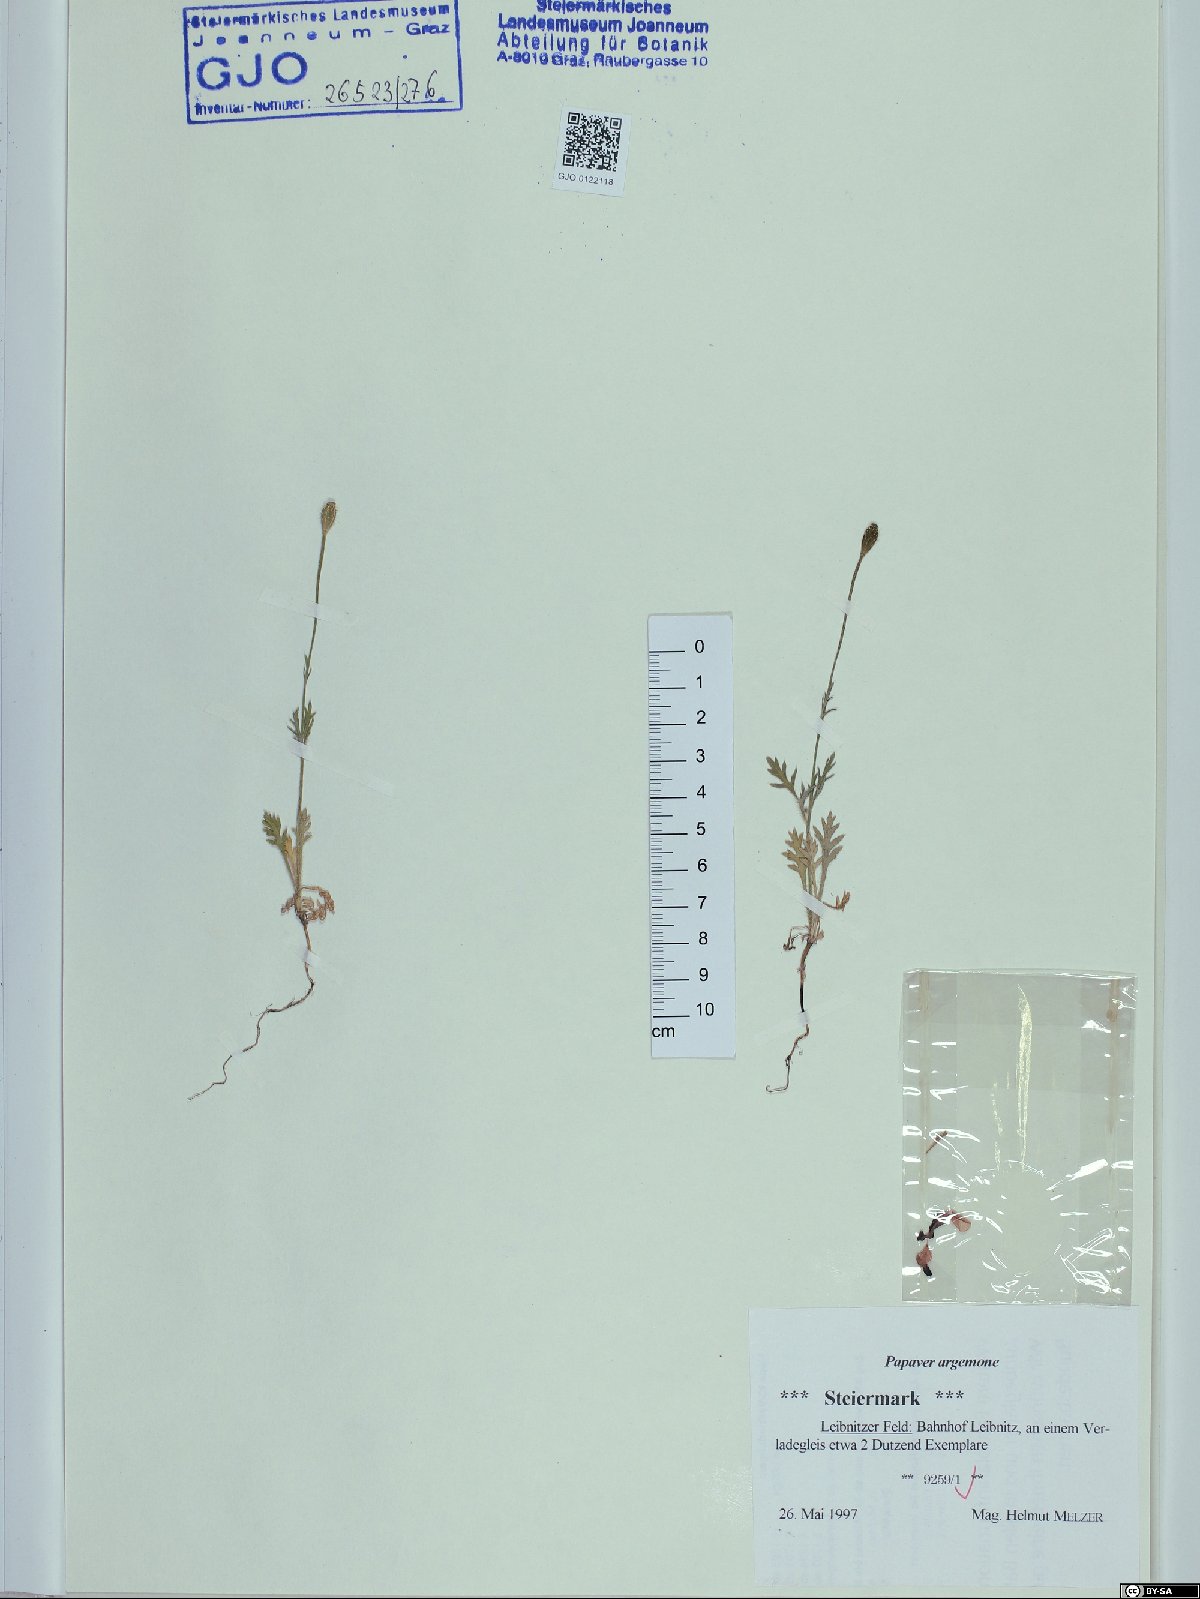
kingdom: Plantae
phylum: Tracheophyta
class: Magnoliopsida
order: Ranunculales
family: Papaveraceae
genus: Roemeria
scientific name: Roemeria argemone
